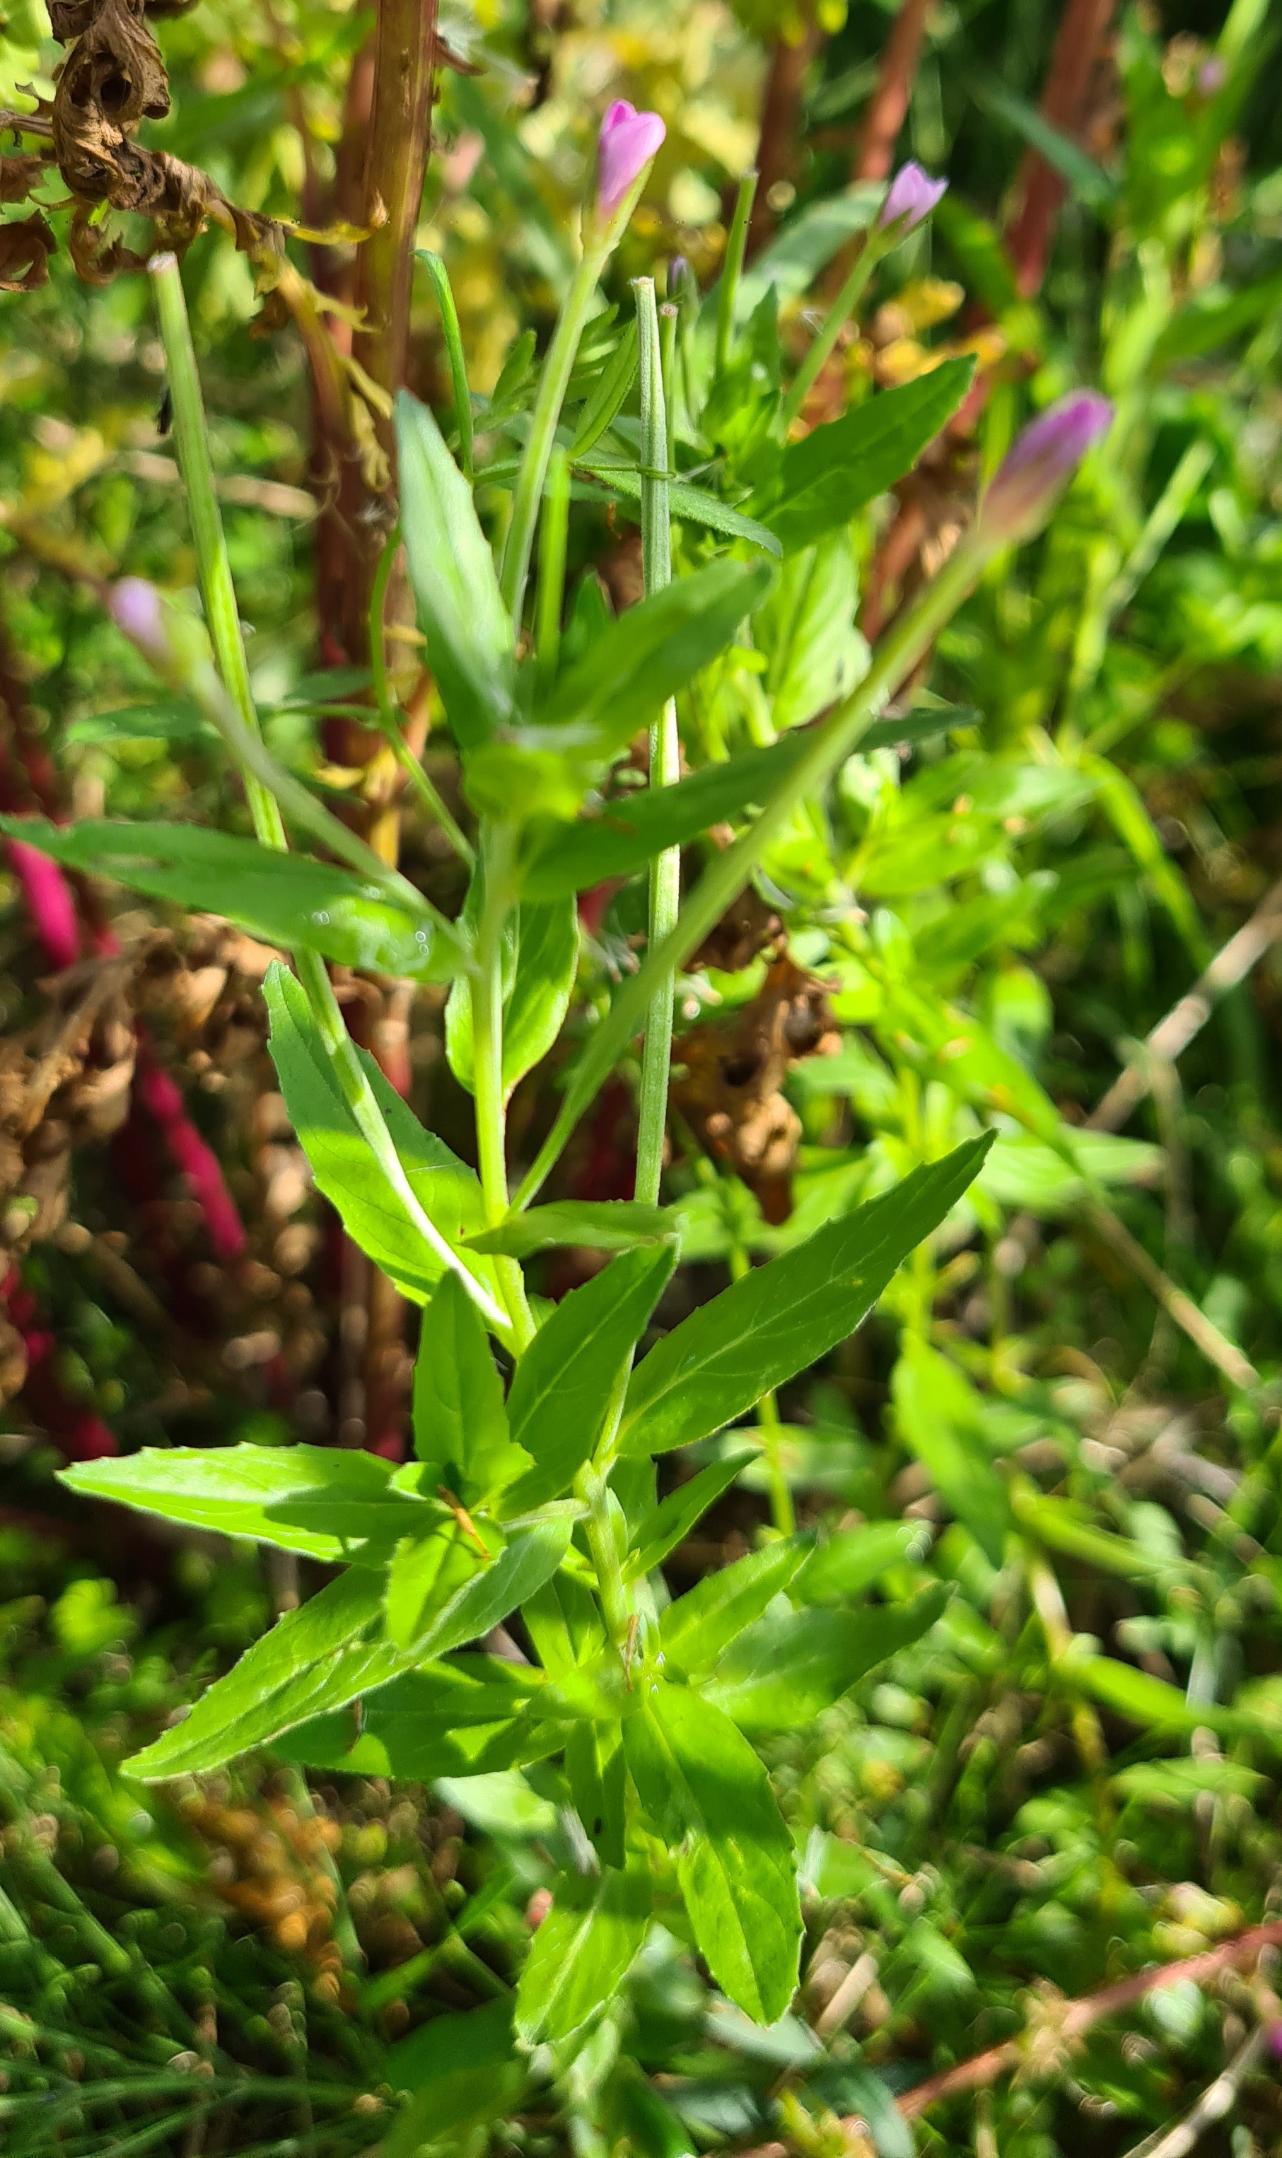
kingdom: Plantae
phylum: Tracheophyta
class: Magnoliopsida
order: Myrtales
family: Onagraceae
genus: Epilobium
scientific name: Epilobium
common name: Dueurtslægten
